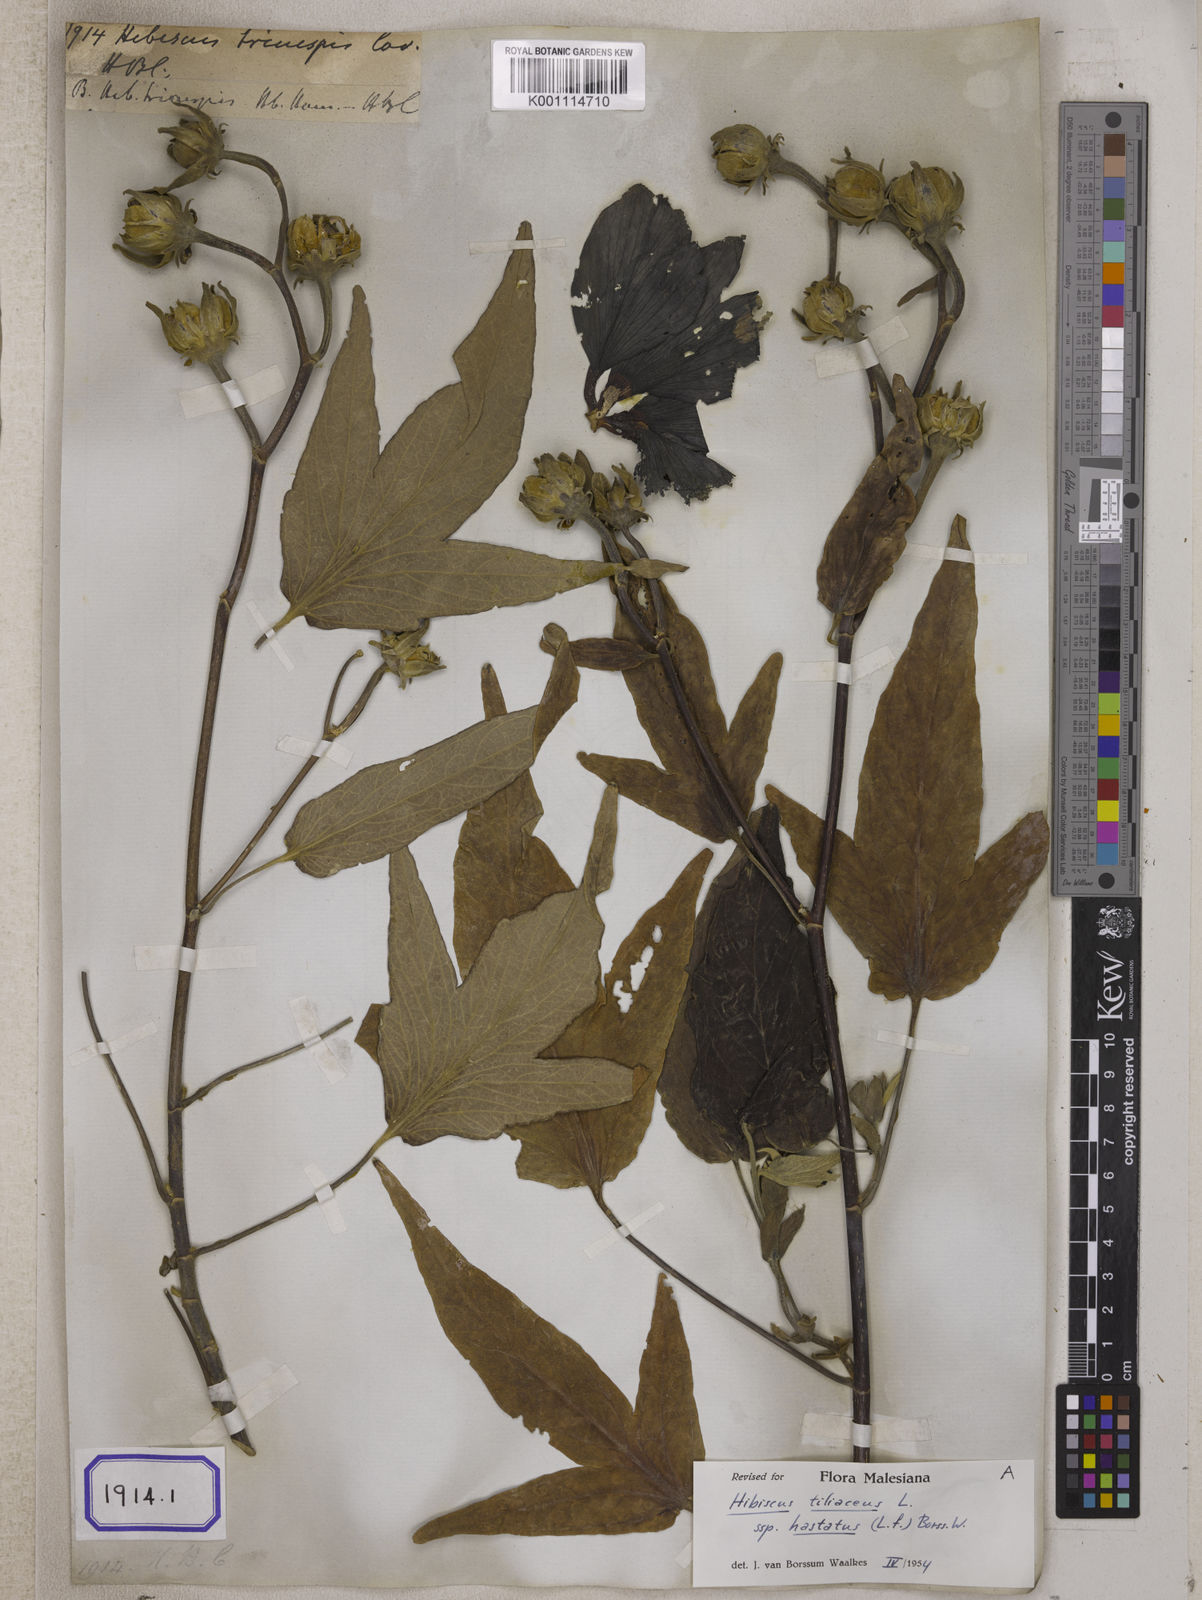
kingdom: Plantae
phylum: Tracheophyta
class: Magnoliopsida
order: Malvales
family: Malvaceae
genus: Talipariti
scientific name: Talipariti tiliaceum
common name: Sea hibiscus
